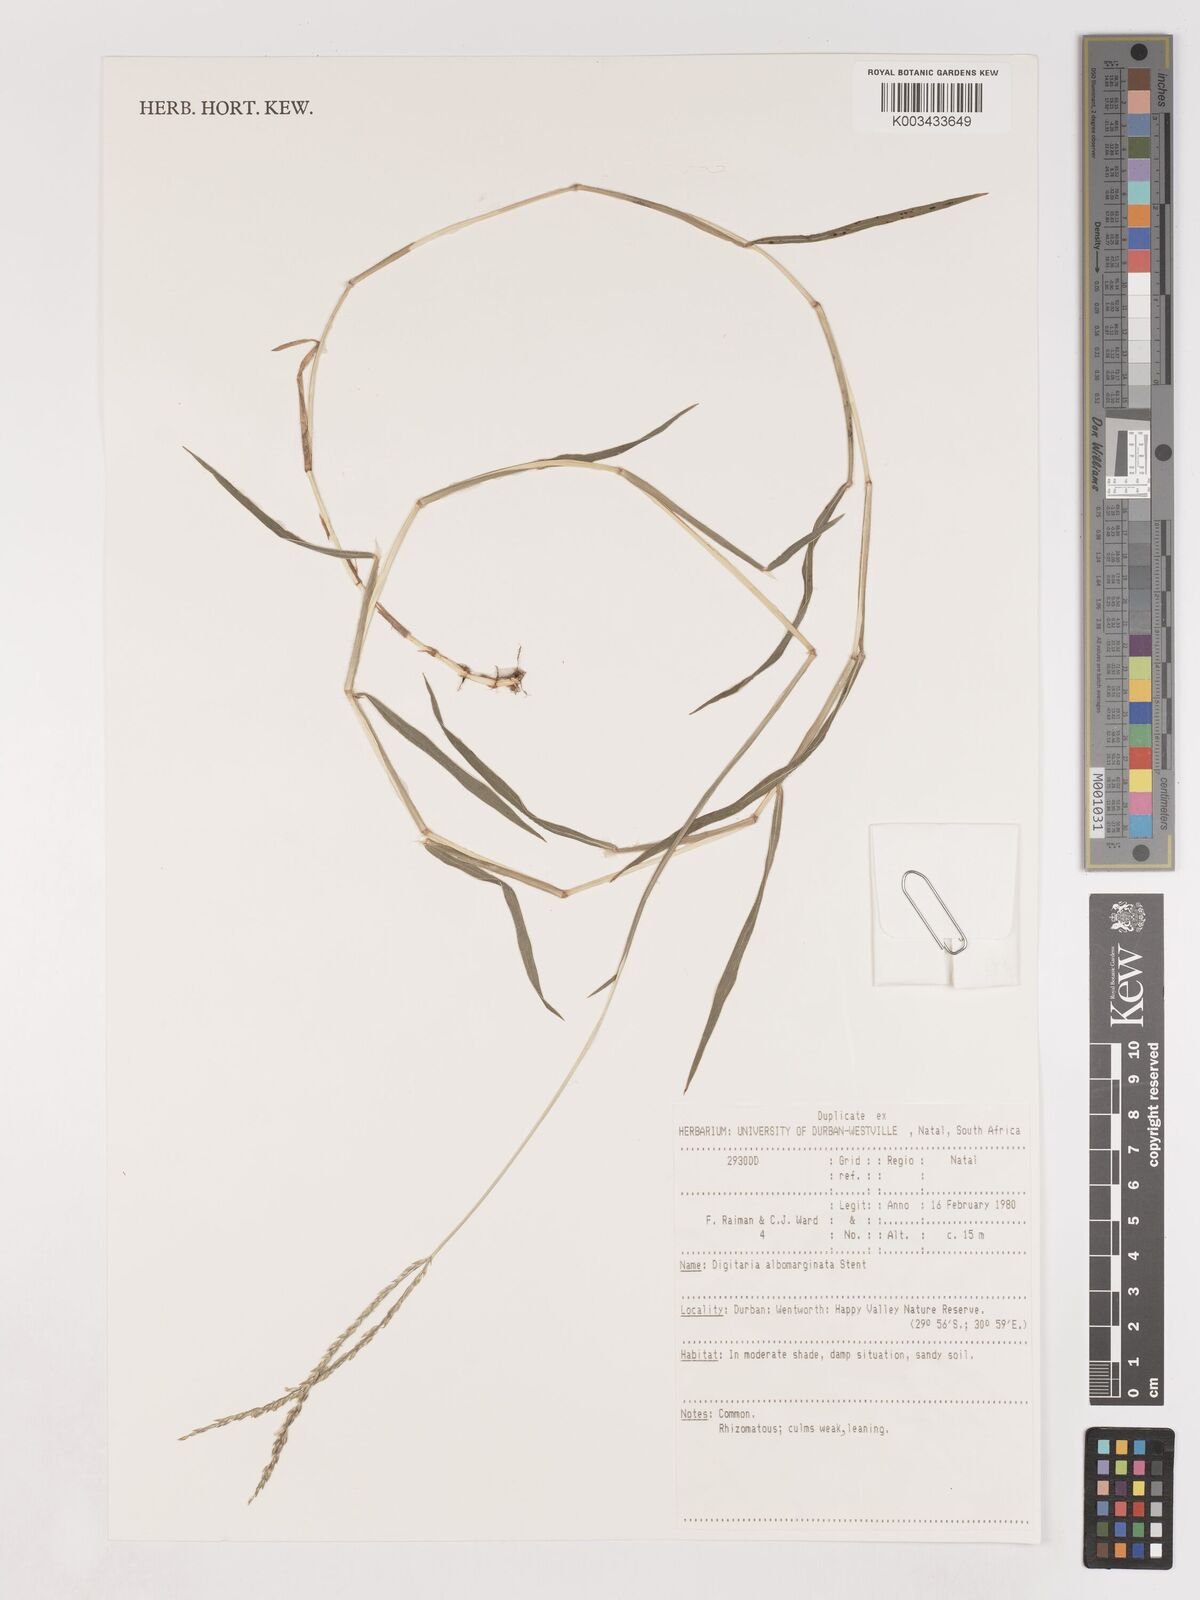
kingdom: Plantae
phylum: Tracheophyta
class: Liliopsida
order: Poales
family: Poaceae
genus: Digitaria
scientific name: Digitaria diversinervis
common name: Richmond finger grass
